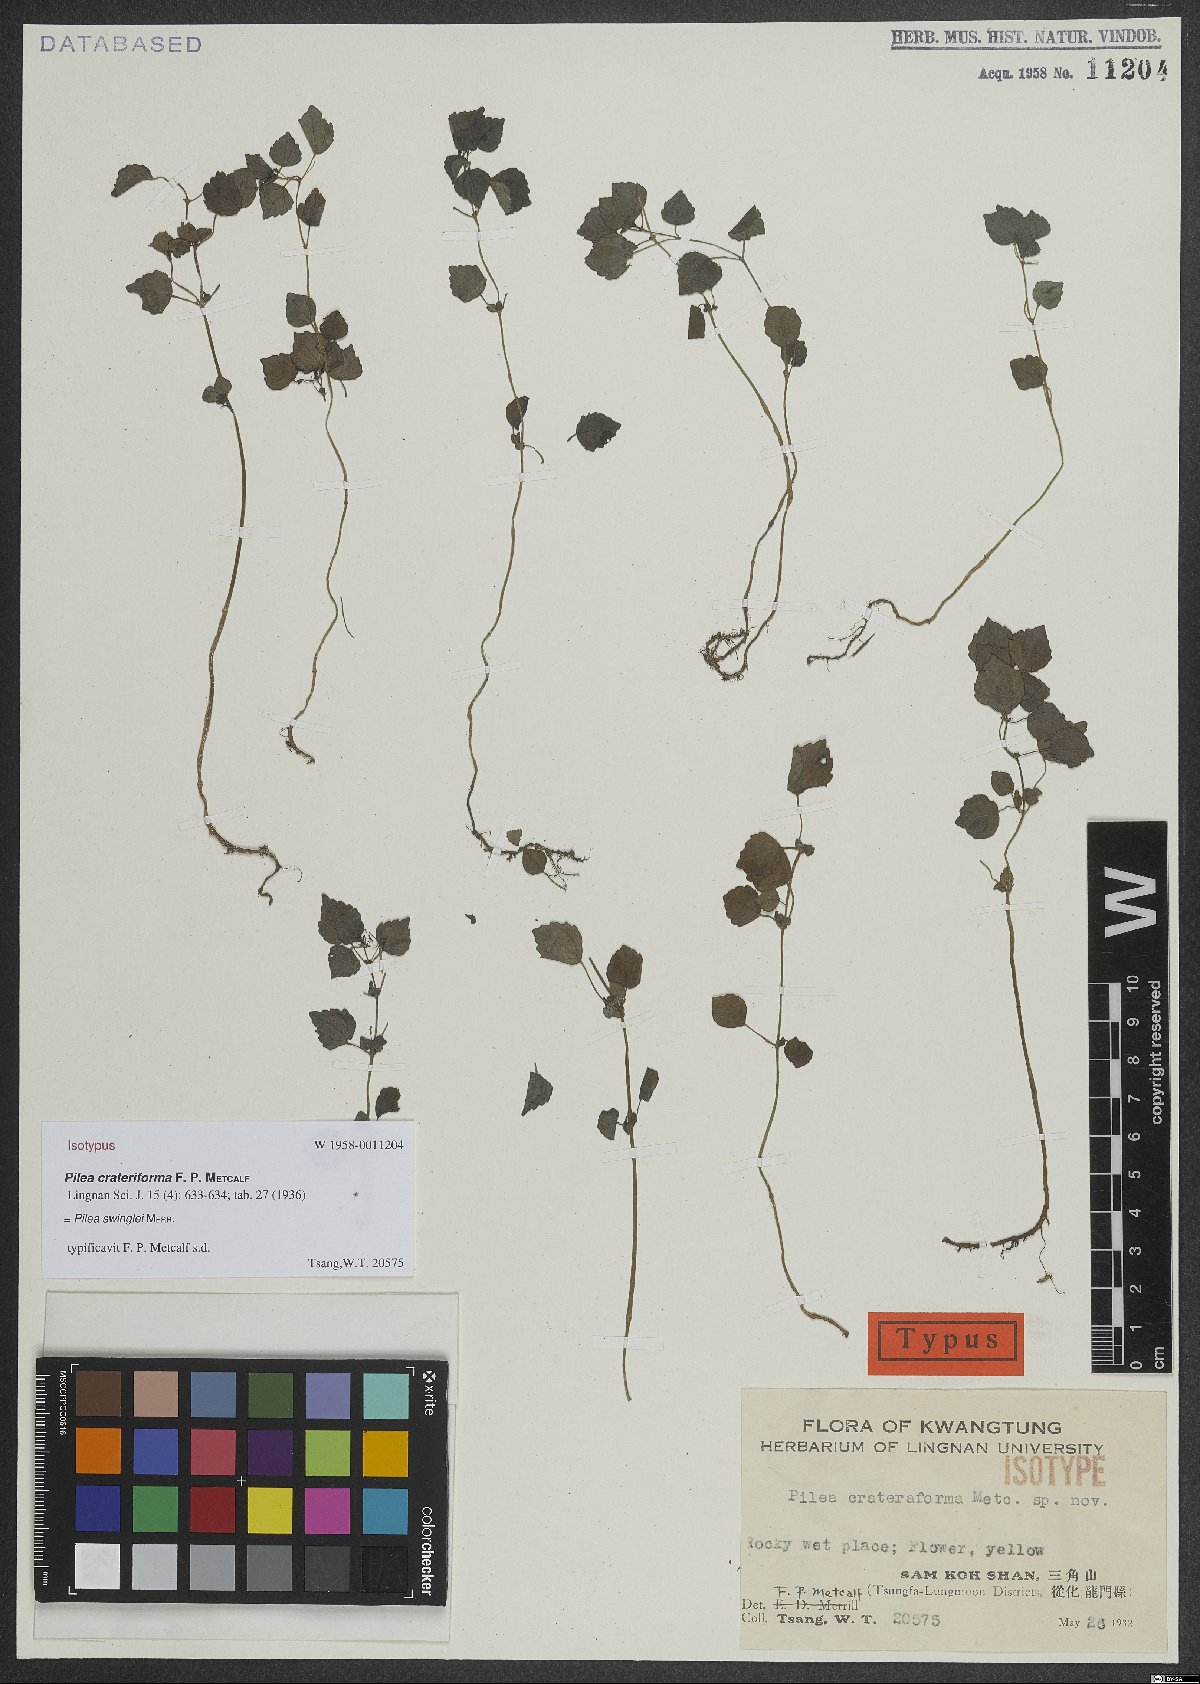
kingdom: Plantae
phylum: Tracheophyta
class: Magnoliopsida
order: Rosales
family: Urticaceae
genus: Pilea
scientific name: Pilea swinglei
